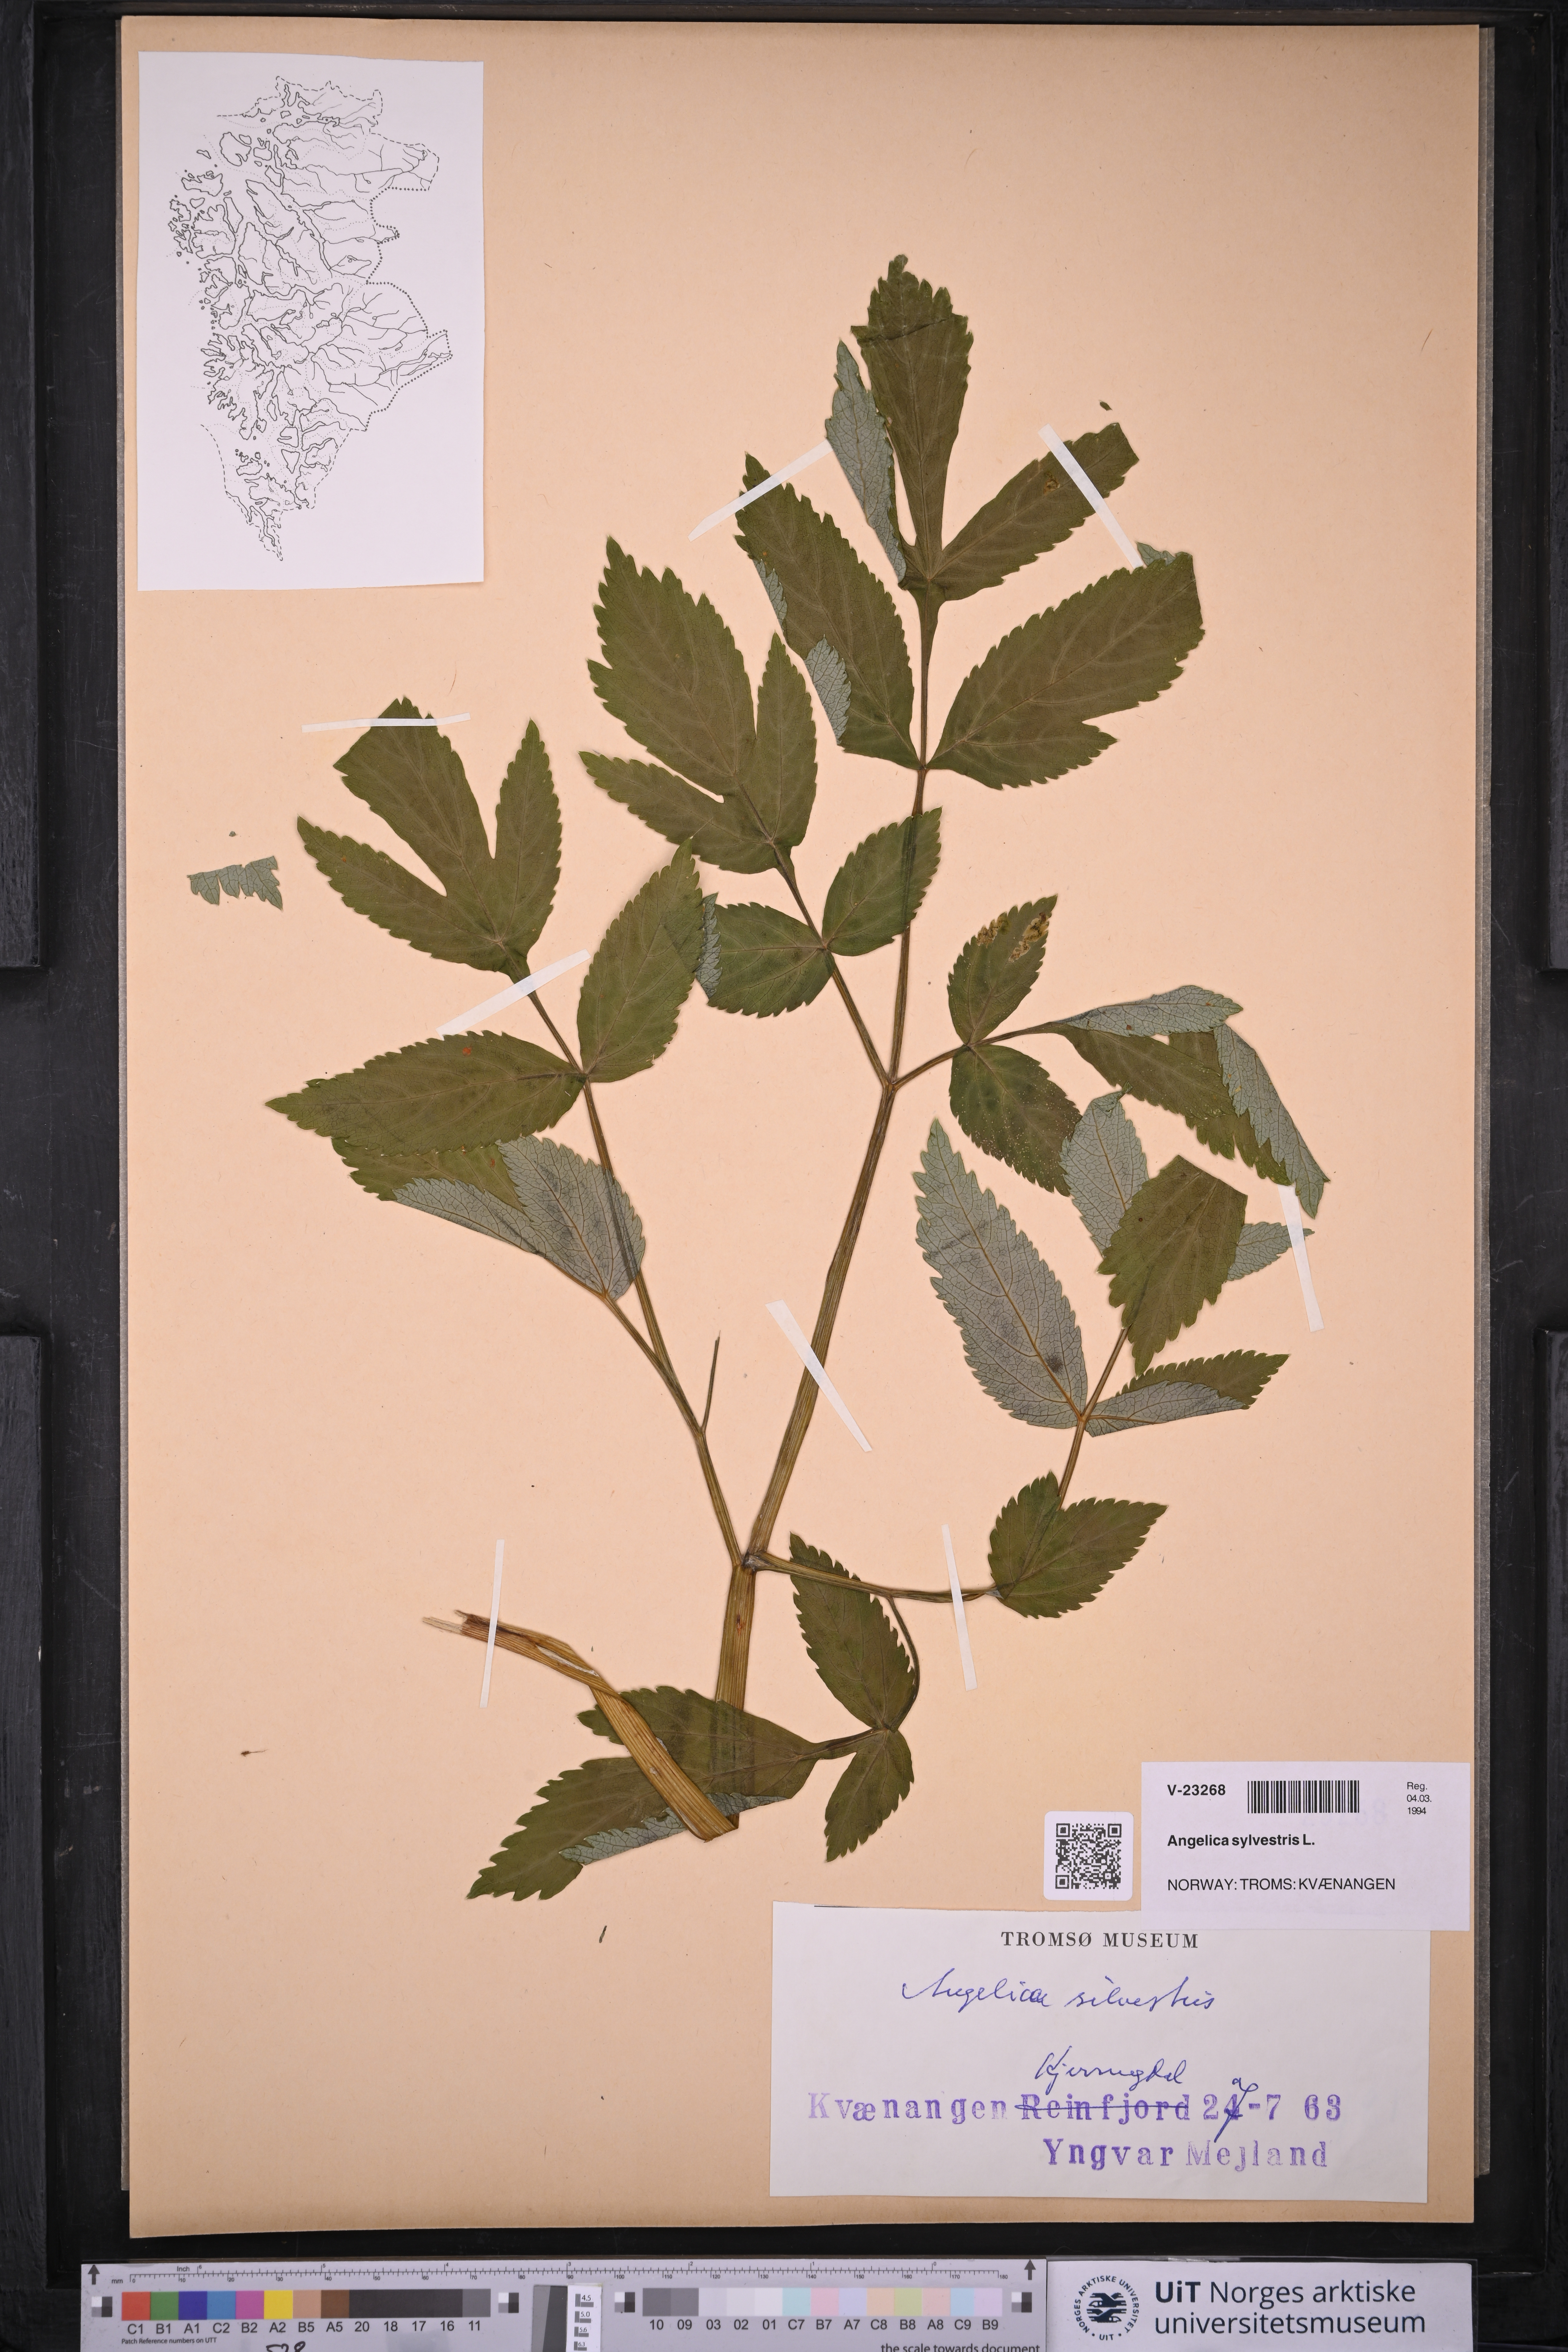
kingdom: Plantae
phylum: Tracheophyta
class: Magnoliopsida
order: Apiales
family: Apiaceae
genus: Angelica
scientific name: Angelica sylvestris
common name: Wild angelica
